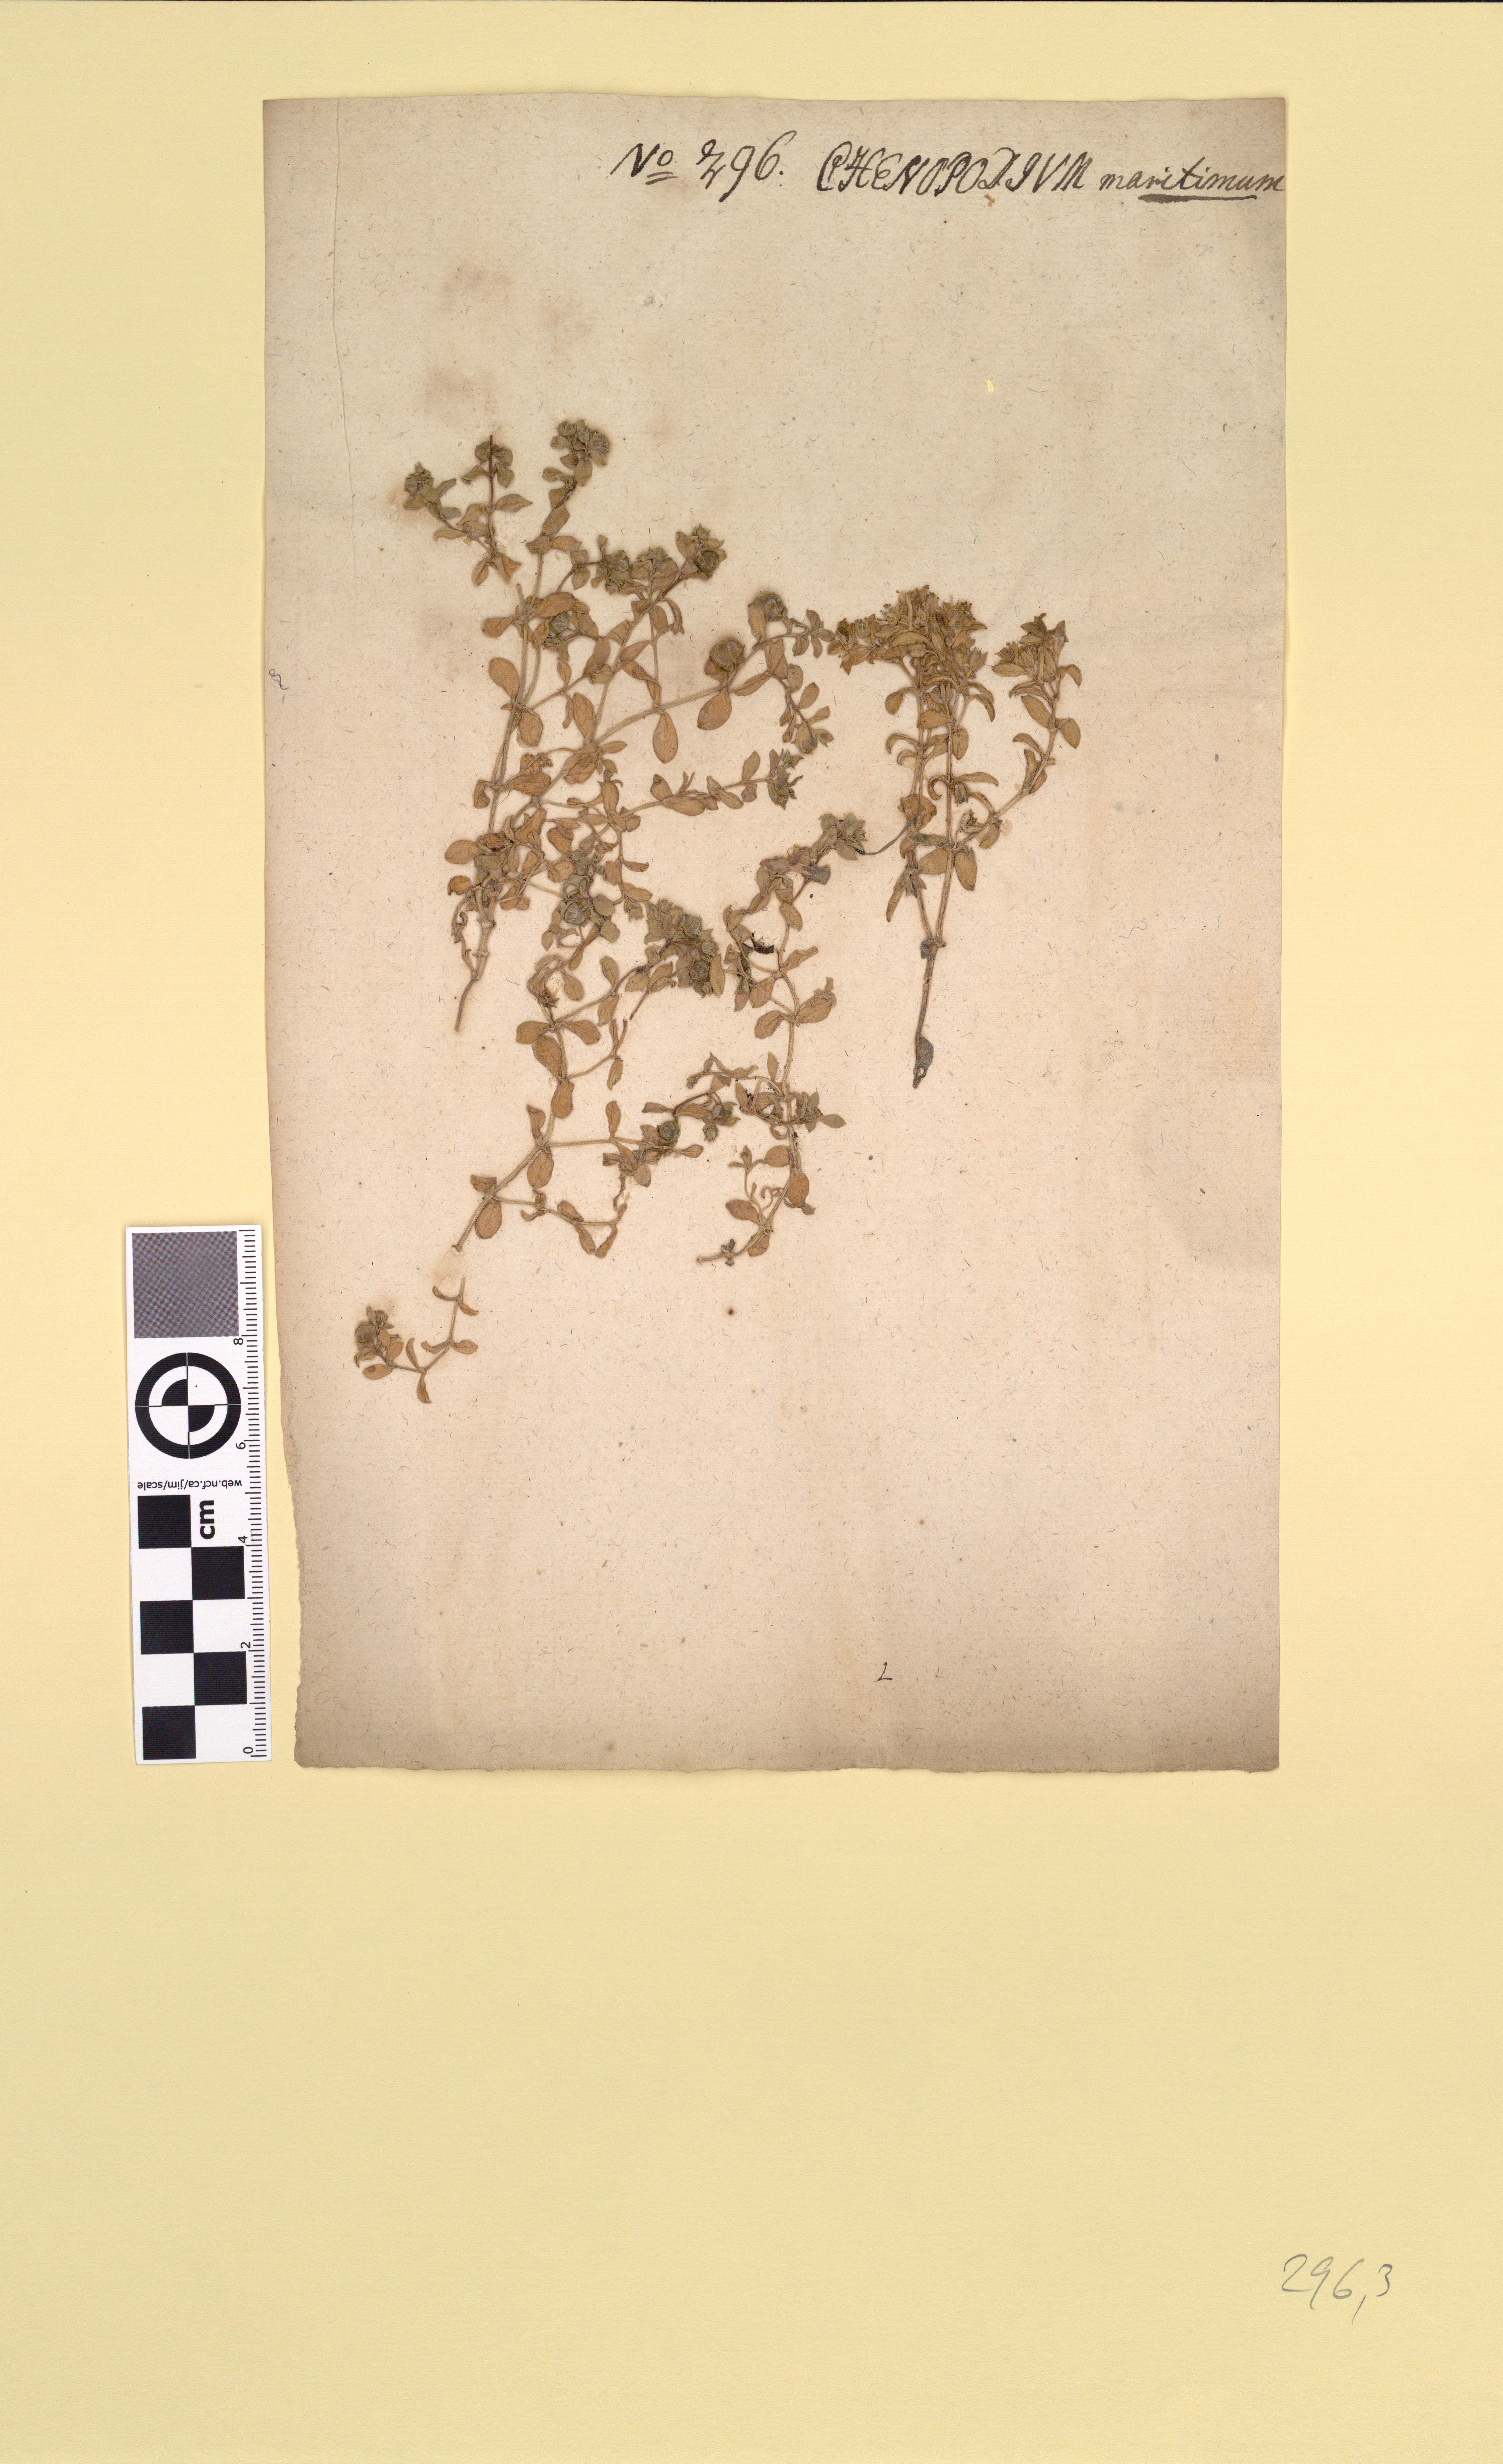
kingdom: Plantae
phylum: Tracheophyta
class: Magnoliopsida
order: Caryophyllales
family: Caryophyllaceae
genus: Honckenya
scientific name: Honckenya peploides
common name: Sea sandwort
